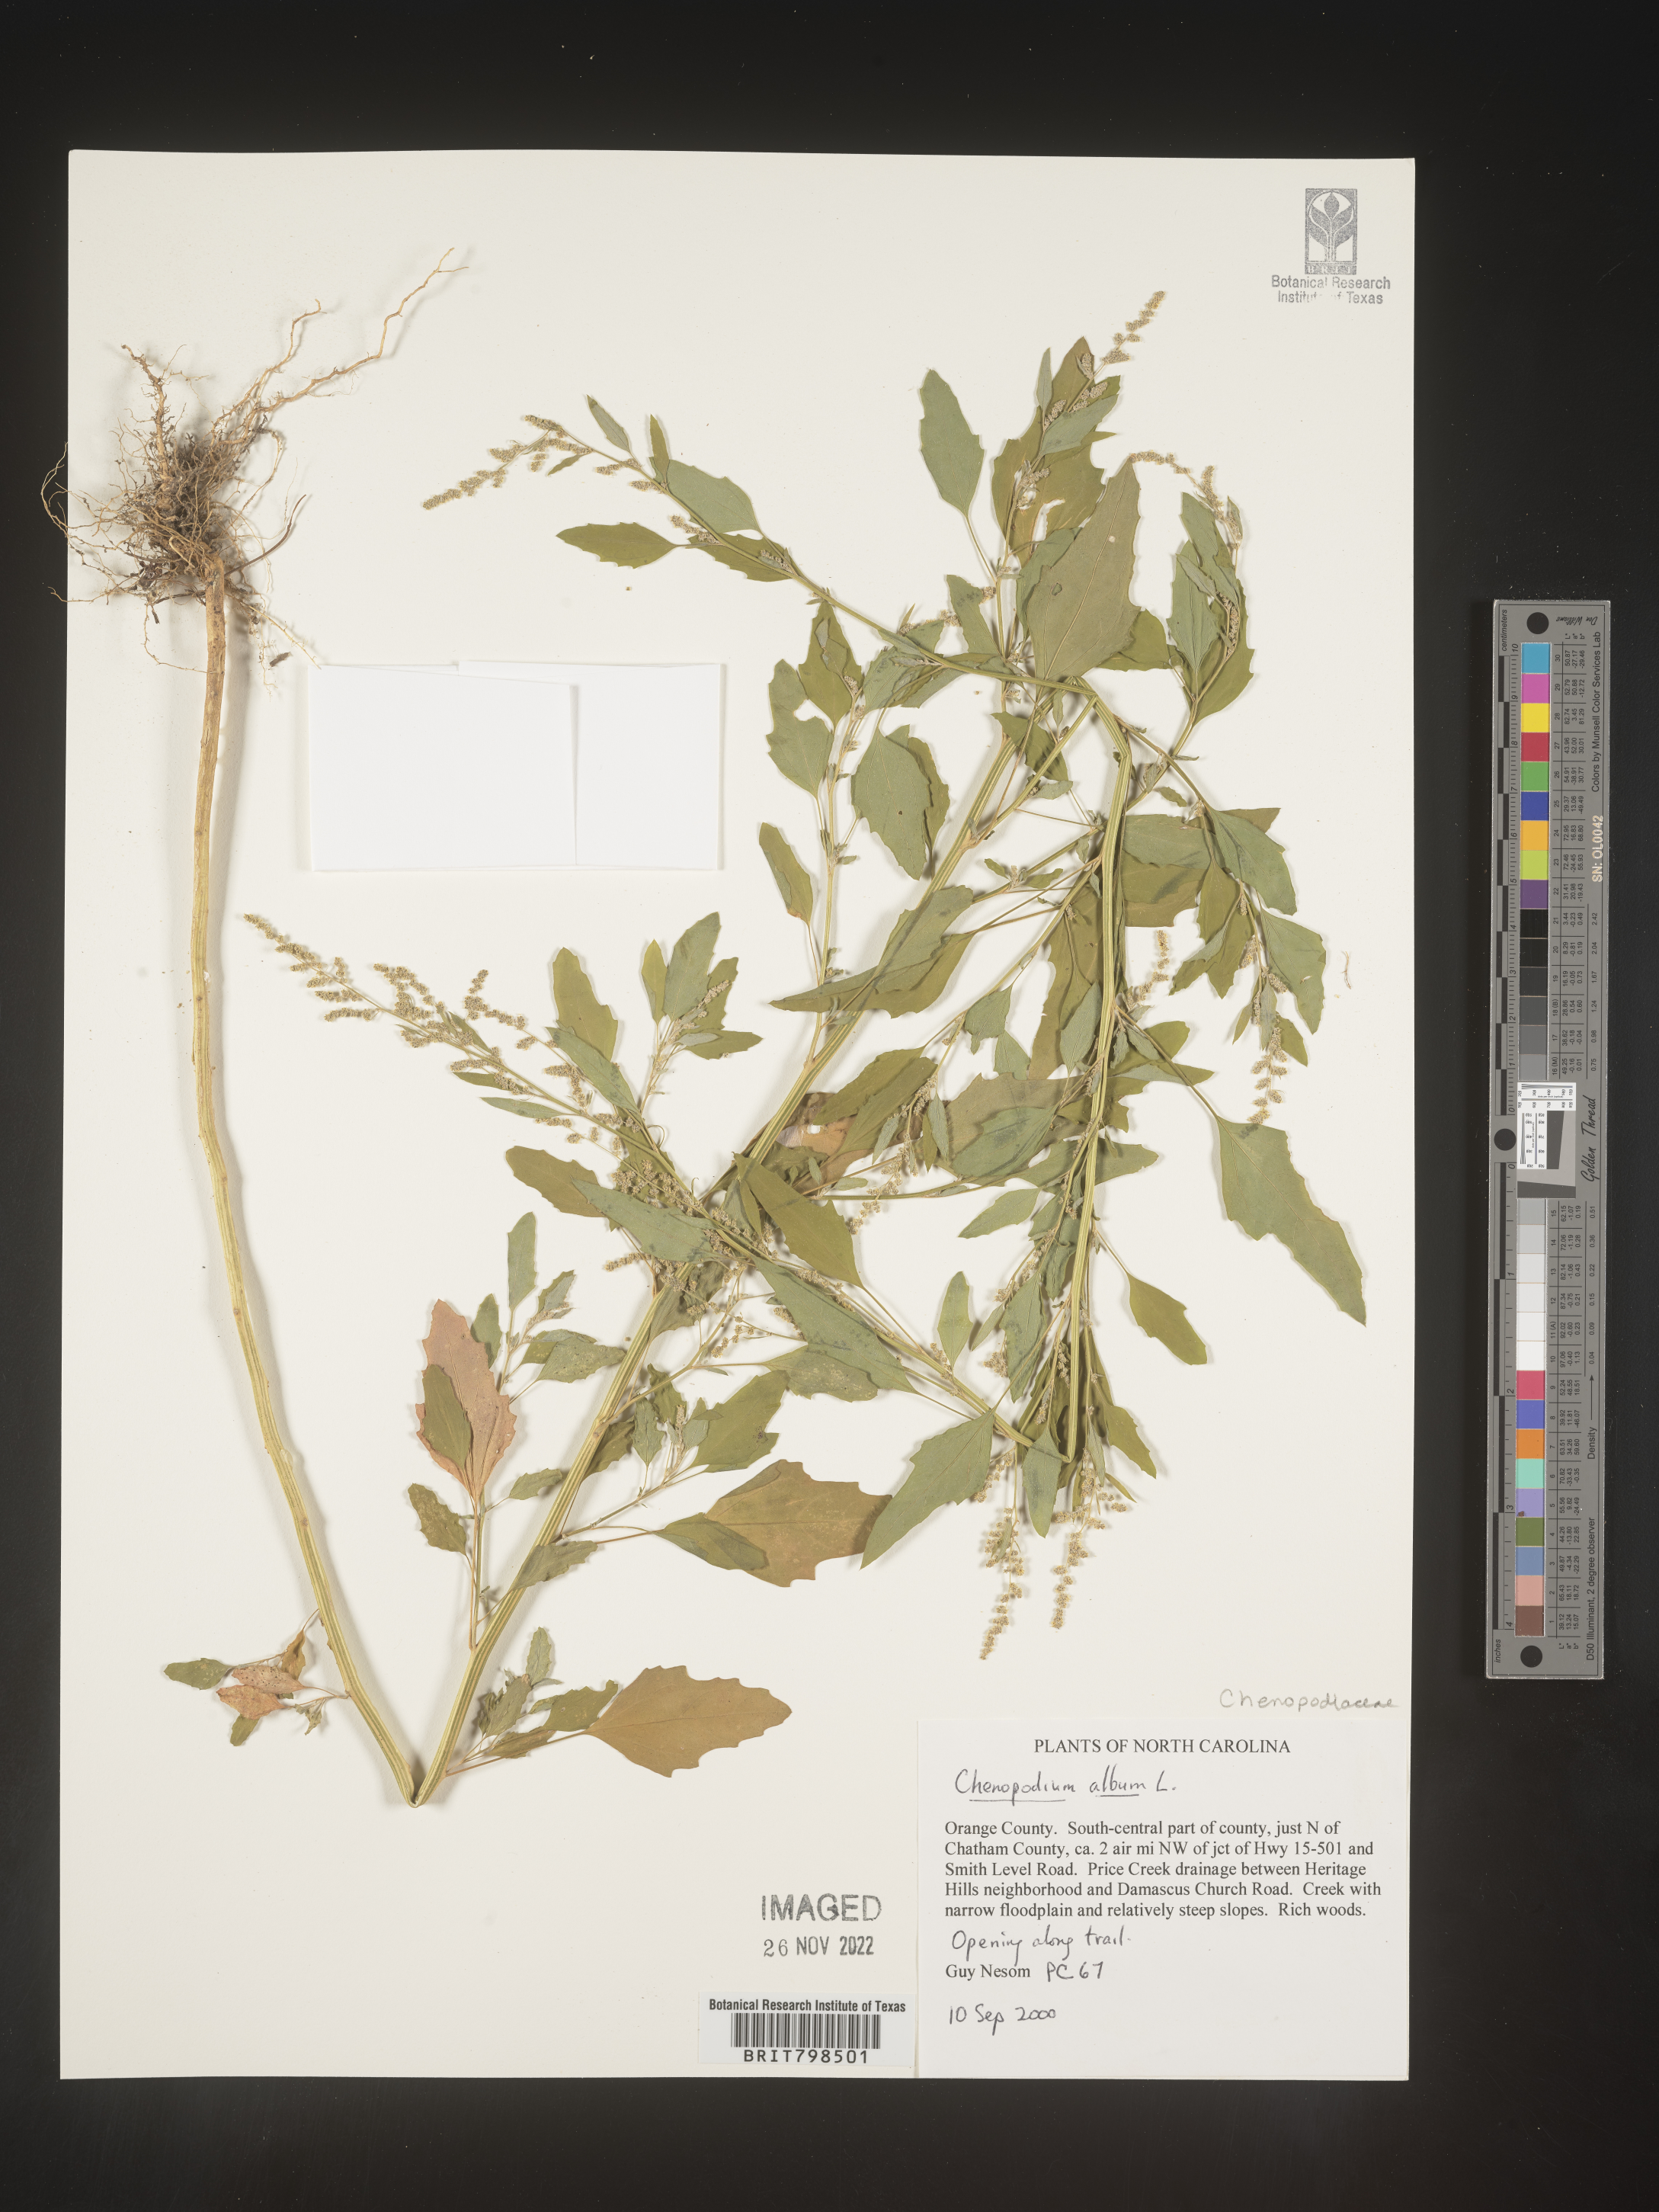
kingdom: Plantae
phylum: Tracheophyta
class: Magnoliopsida
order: Caryophyllales
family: Amaranthaceae
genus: Chenopodium
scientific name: Chenopodium album
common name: Fat-hen
